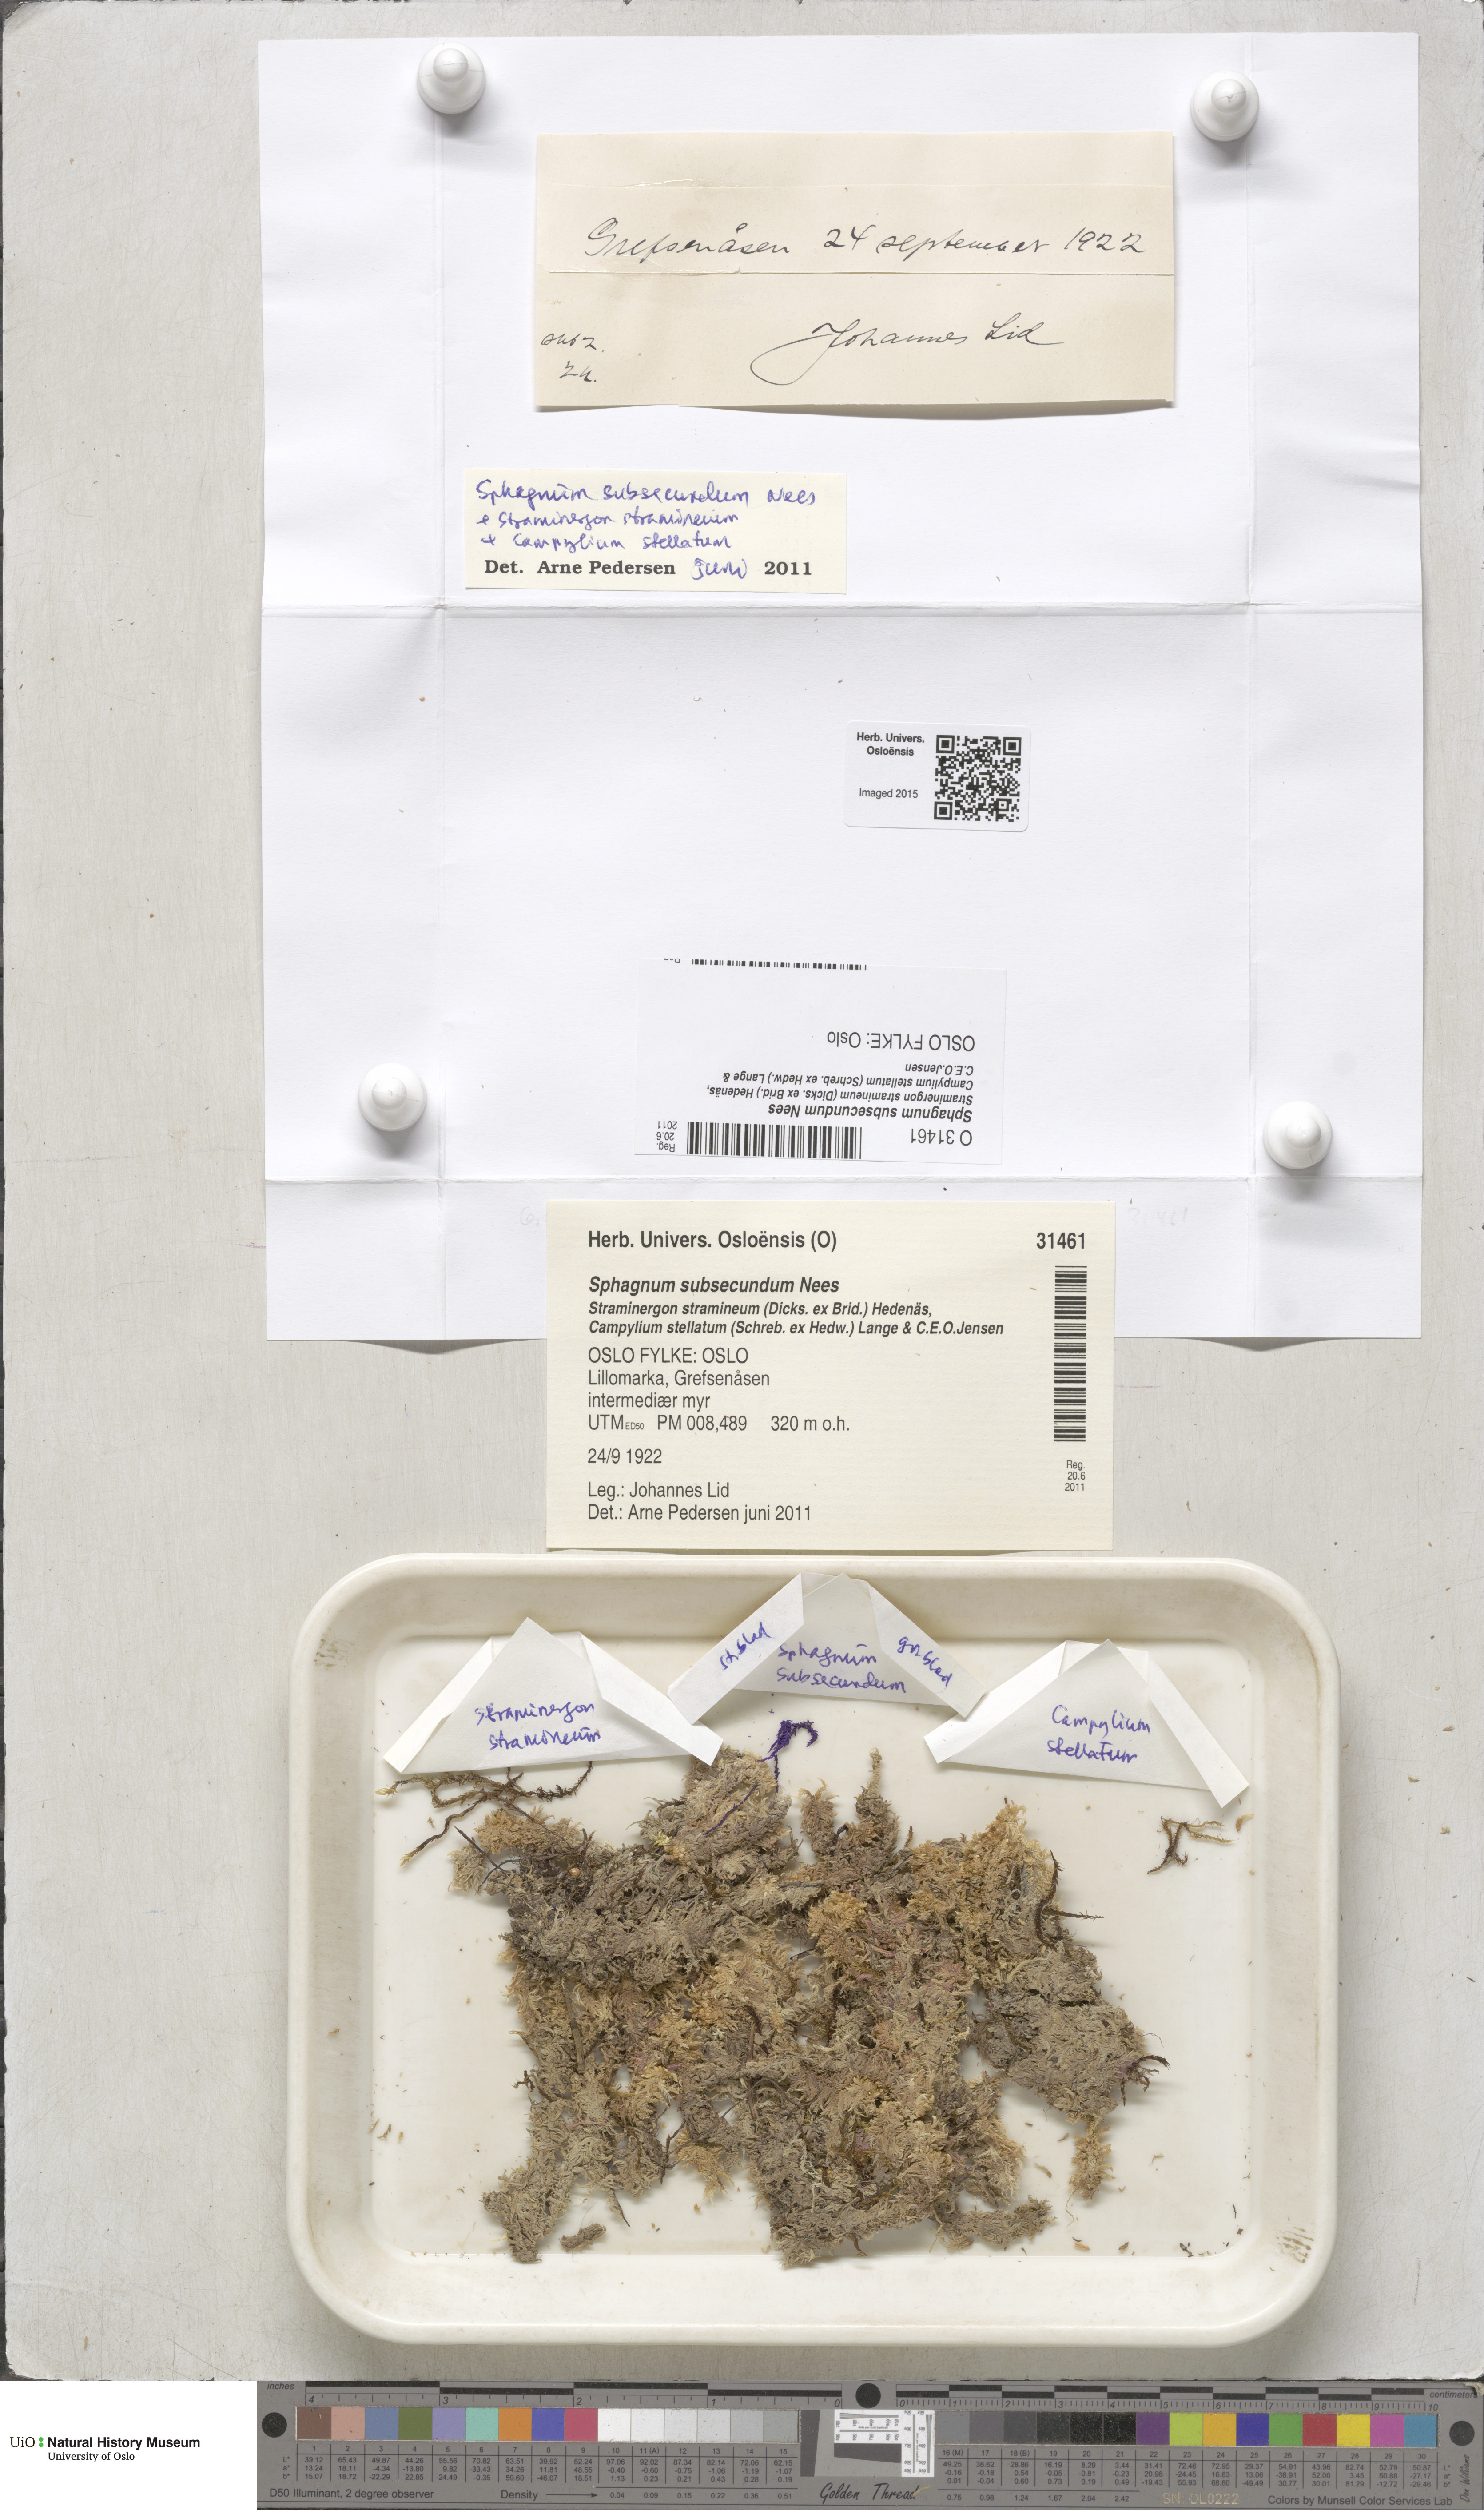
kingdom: Plantae
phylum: Bryophyta
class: Sphagnopsida
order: Sphagnales
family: Sphagnaceae
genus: Sphagnum
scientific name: Sphagnum subsecundum
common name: Orange peat moss
